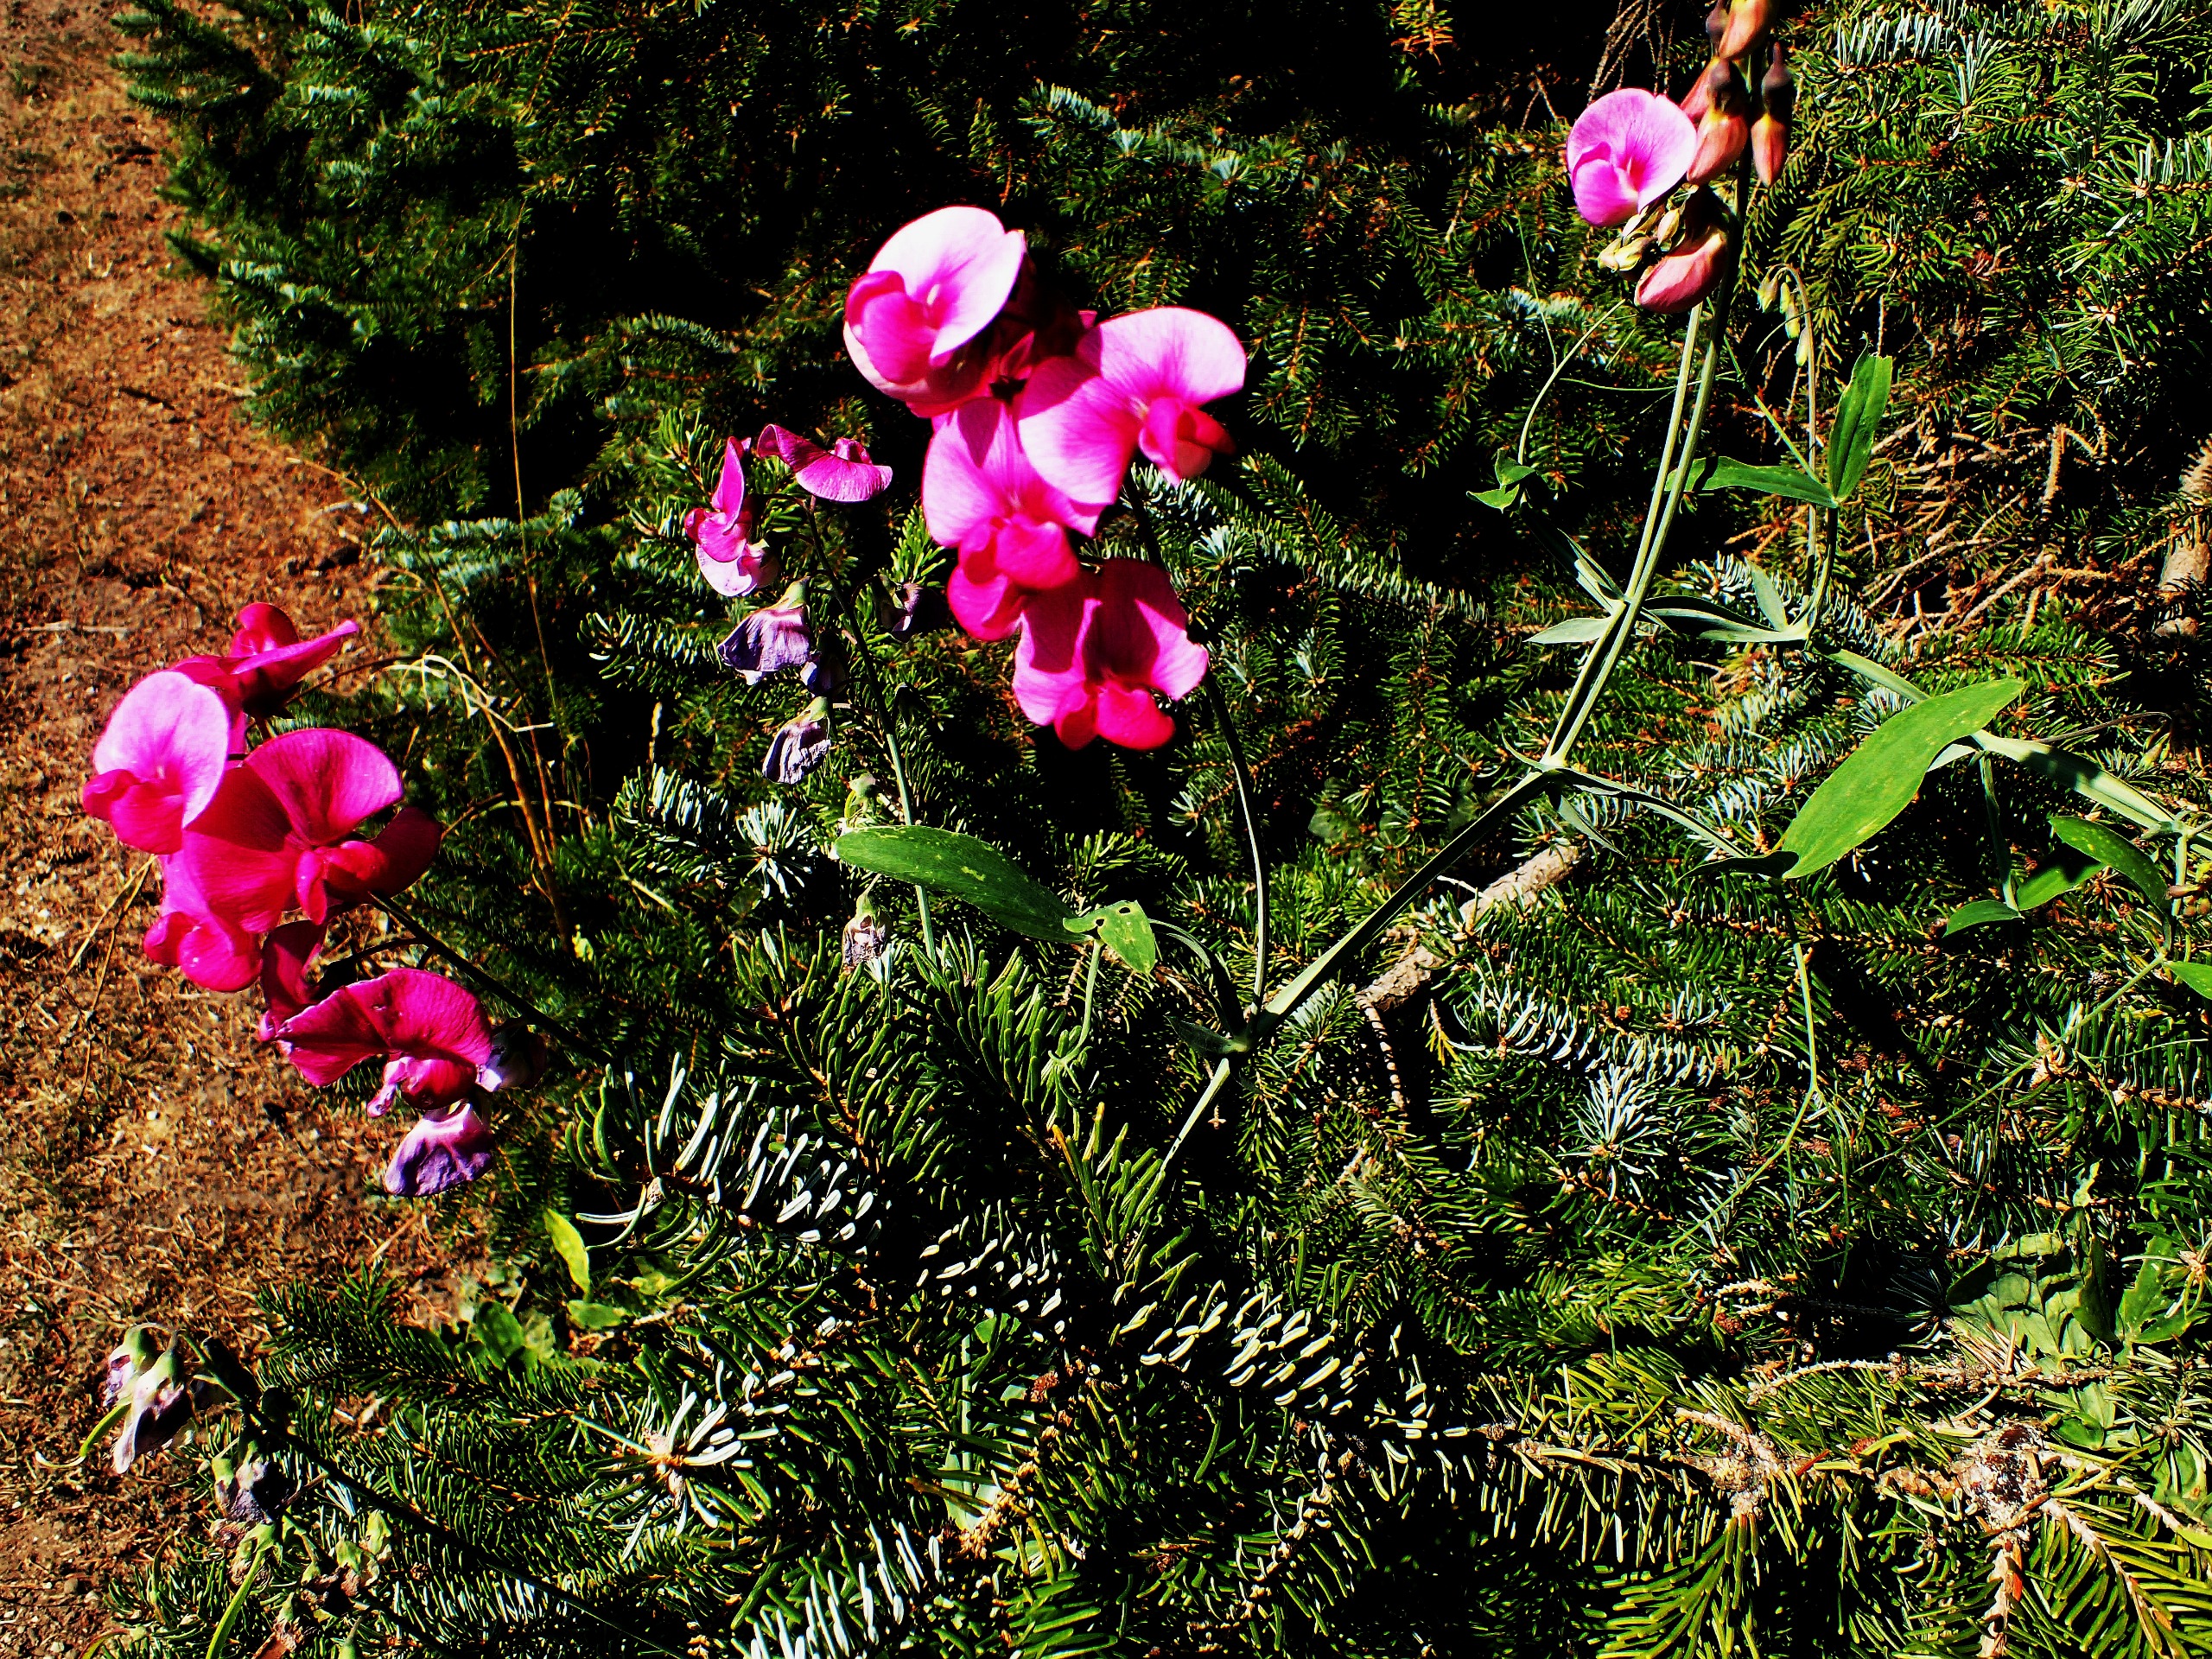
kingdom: Plantae
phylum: Tracheophyta
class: Magnoliopsida
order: Fabales
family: Fabaceae
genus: Lathyrus
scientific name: Lathyrus latifolius
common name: Flerårig ærteblomst
